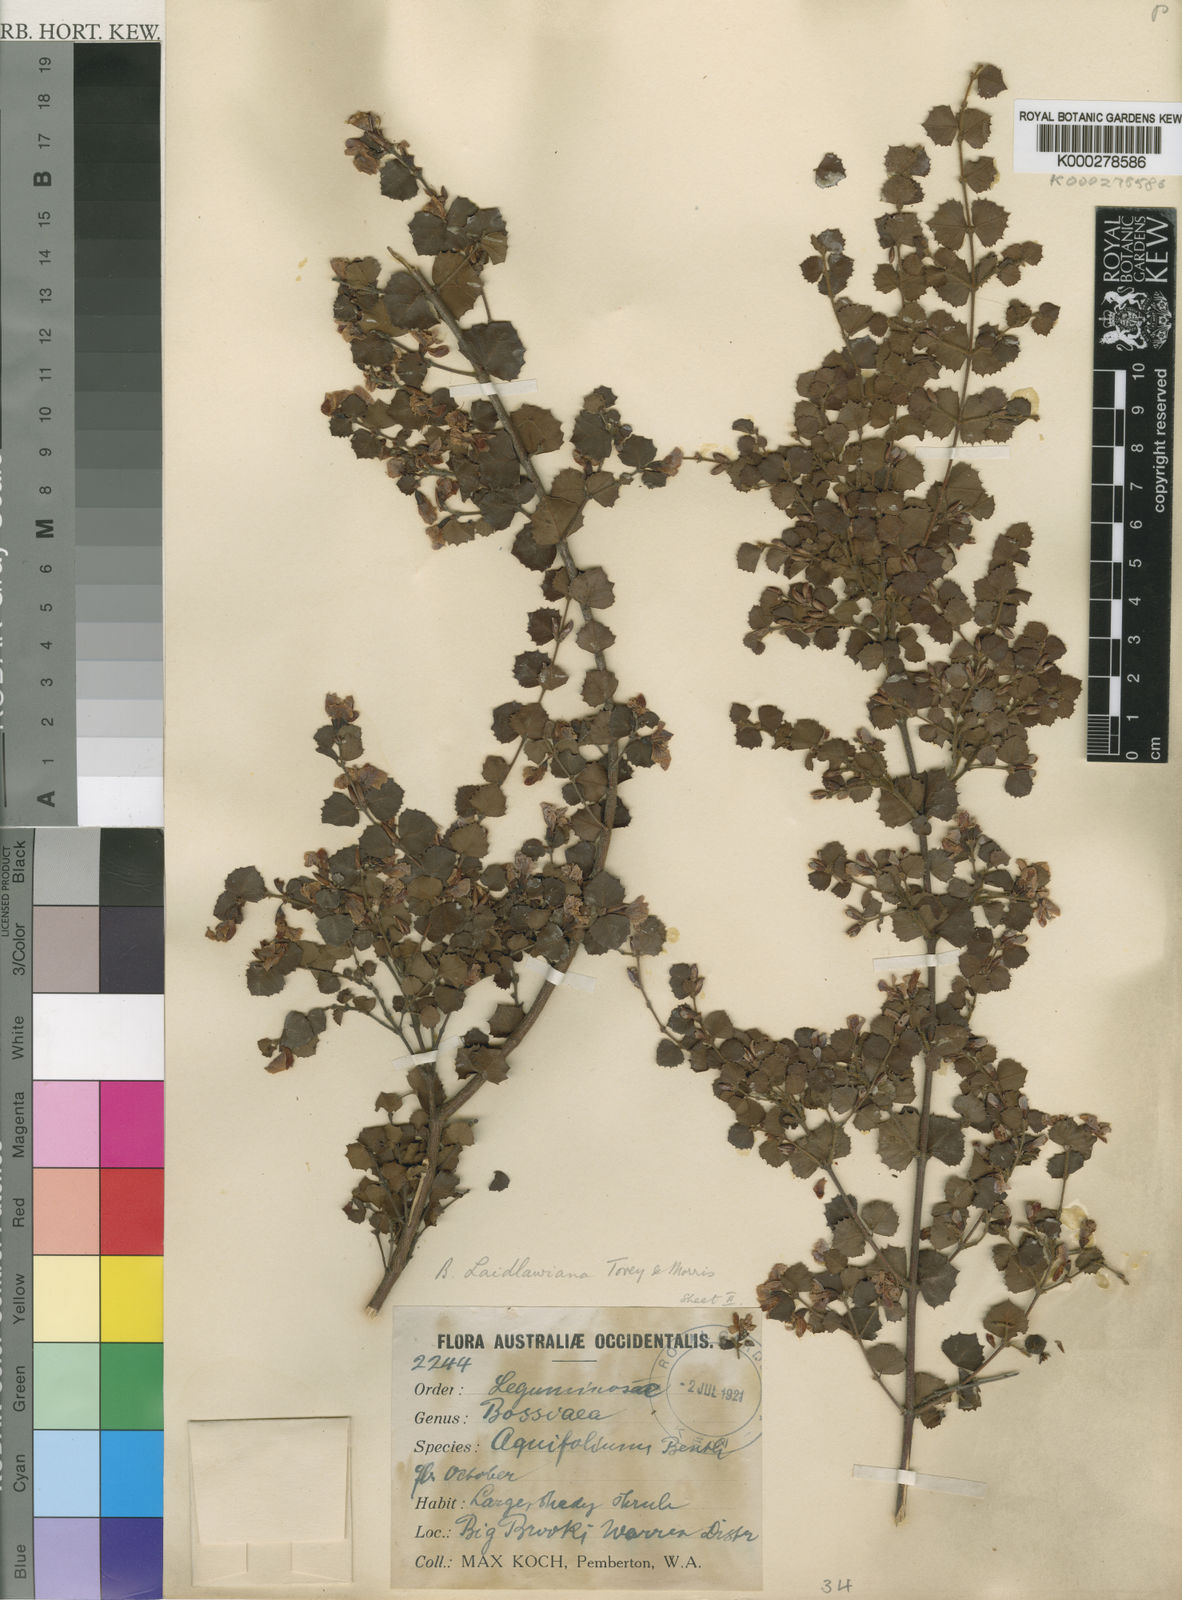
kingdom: Plantae
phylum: Tracheophyta
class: Magnoliopsida
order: Fabales
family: Fabaceae
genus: Bossiaea
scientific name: Bossiaea aquifolium
